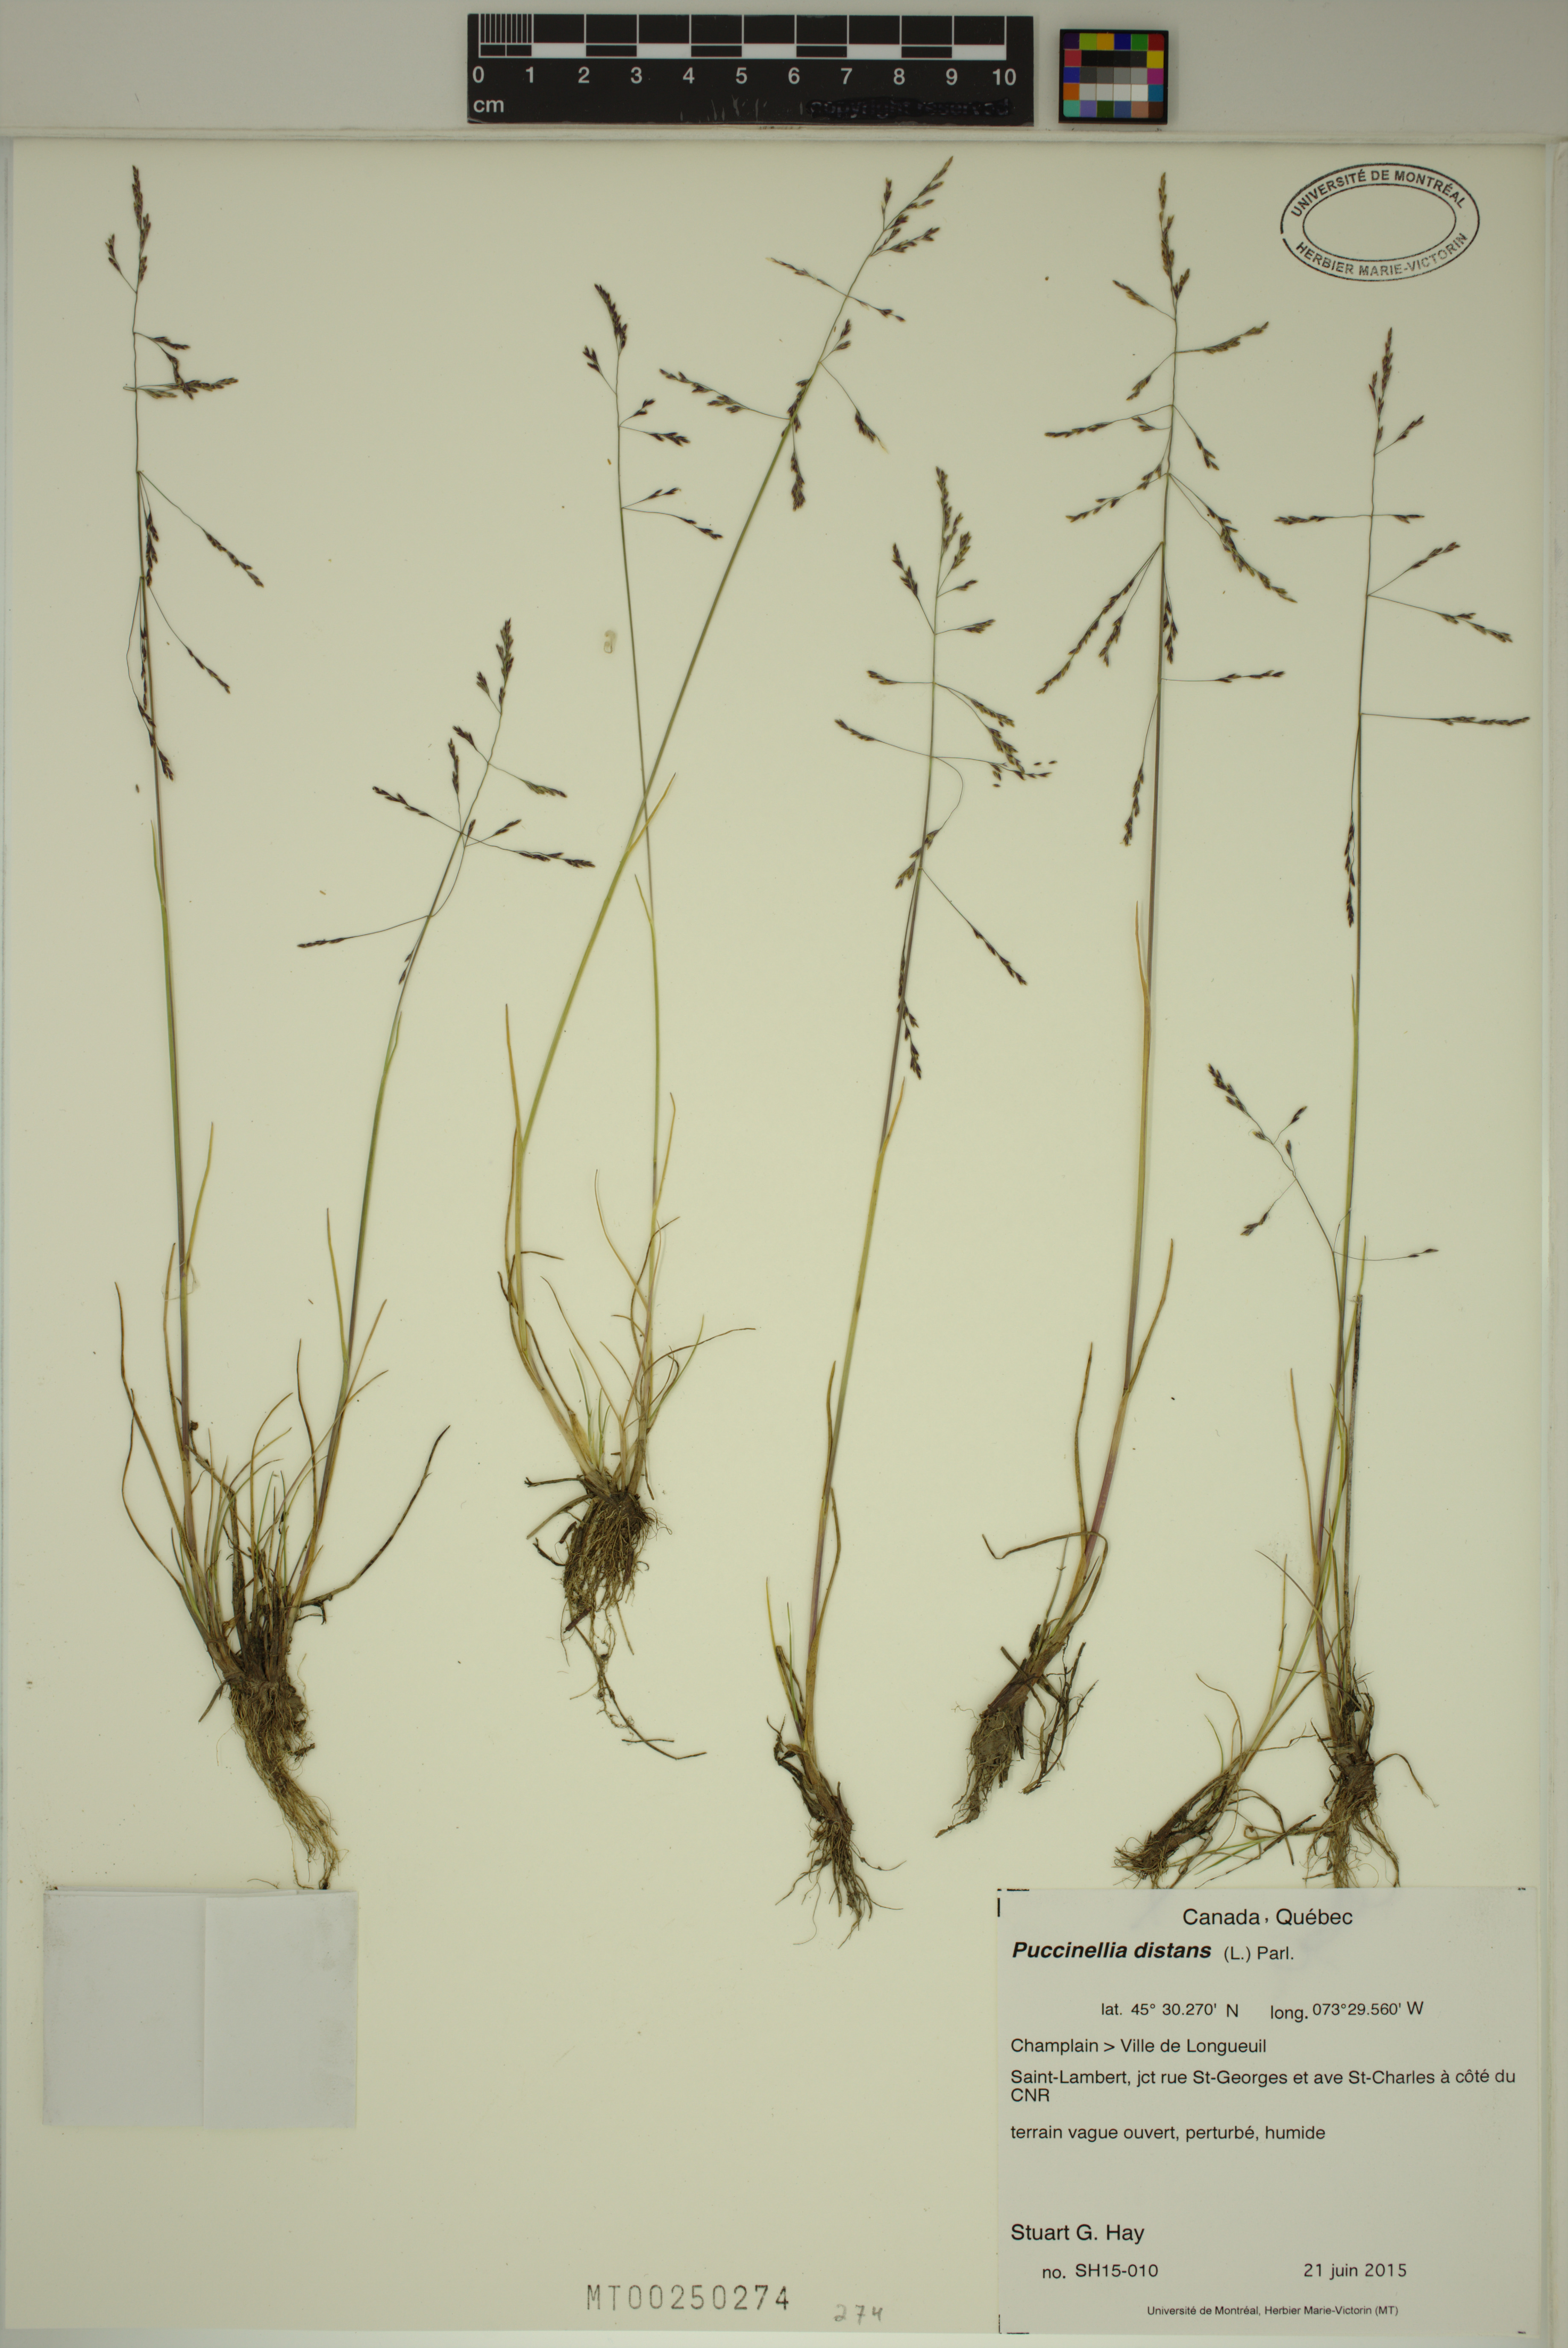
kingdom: Plantae
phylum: Tracheophyta
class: Liliopsida
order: Poales
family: Poaceae
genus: Puccinellia
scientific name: Puccinellia distans
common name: Weeping alkaligrass
